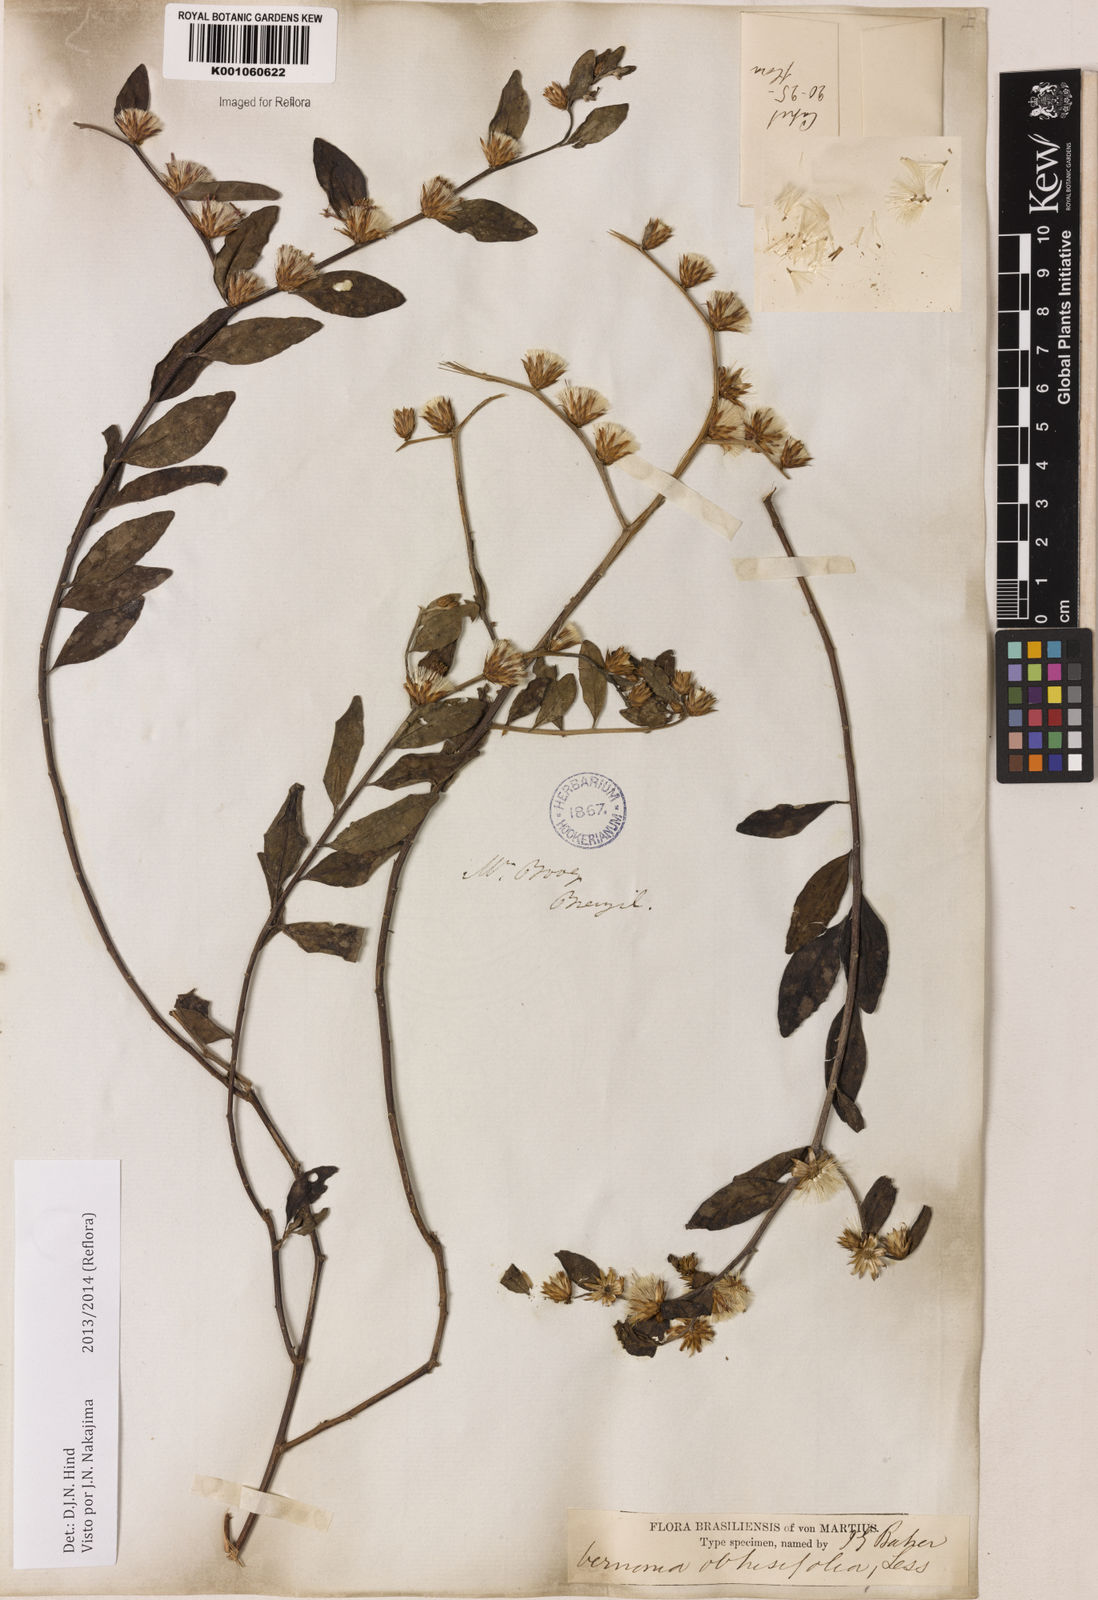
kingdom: Plantae
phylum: Tracheophyta
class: Magnoliopsida
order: Asterales
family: Asteraceae
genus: Lepidaploa
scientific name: Lepidaploa obtusifolia
